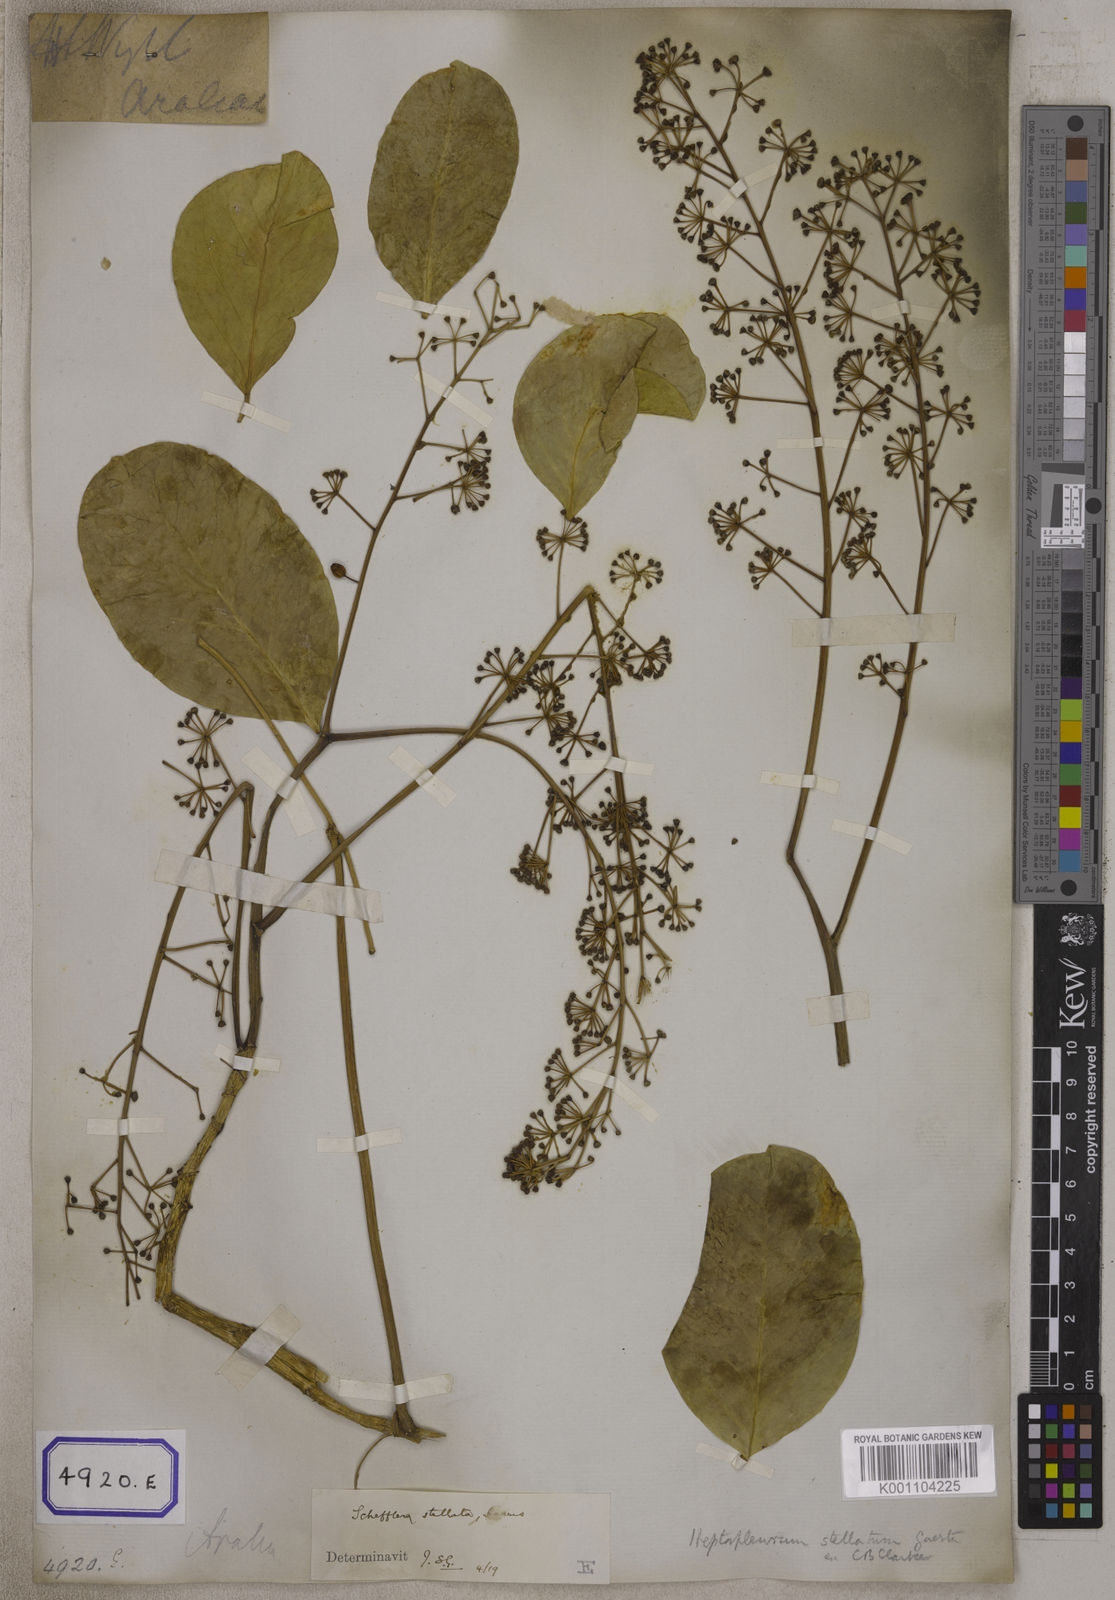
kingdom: Plantae
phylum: Tracheophyta
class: Magnoliopsida
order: Apiales
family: Araliaceae
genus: Hedera
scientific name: Hedera
